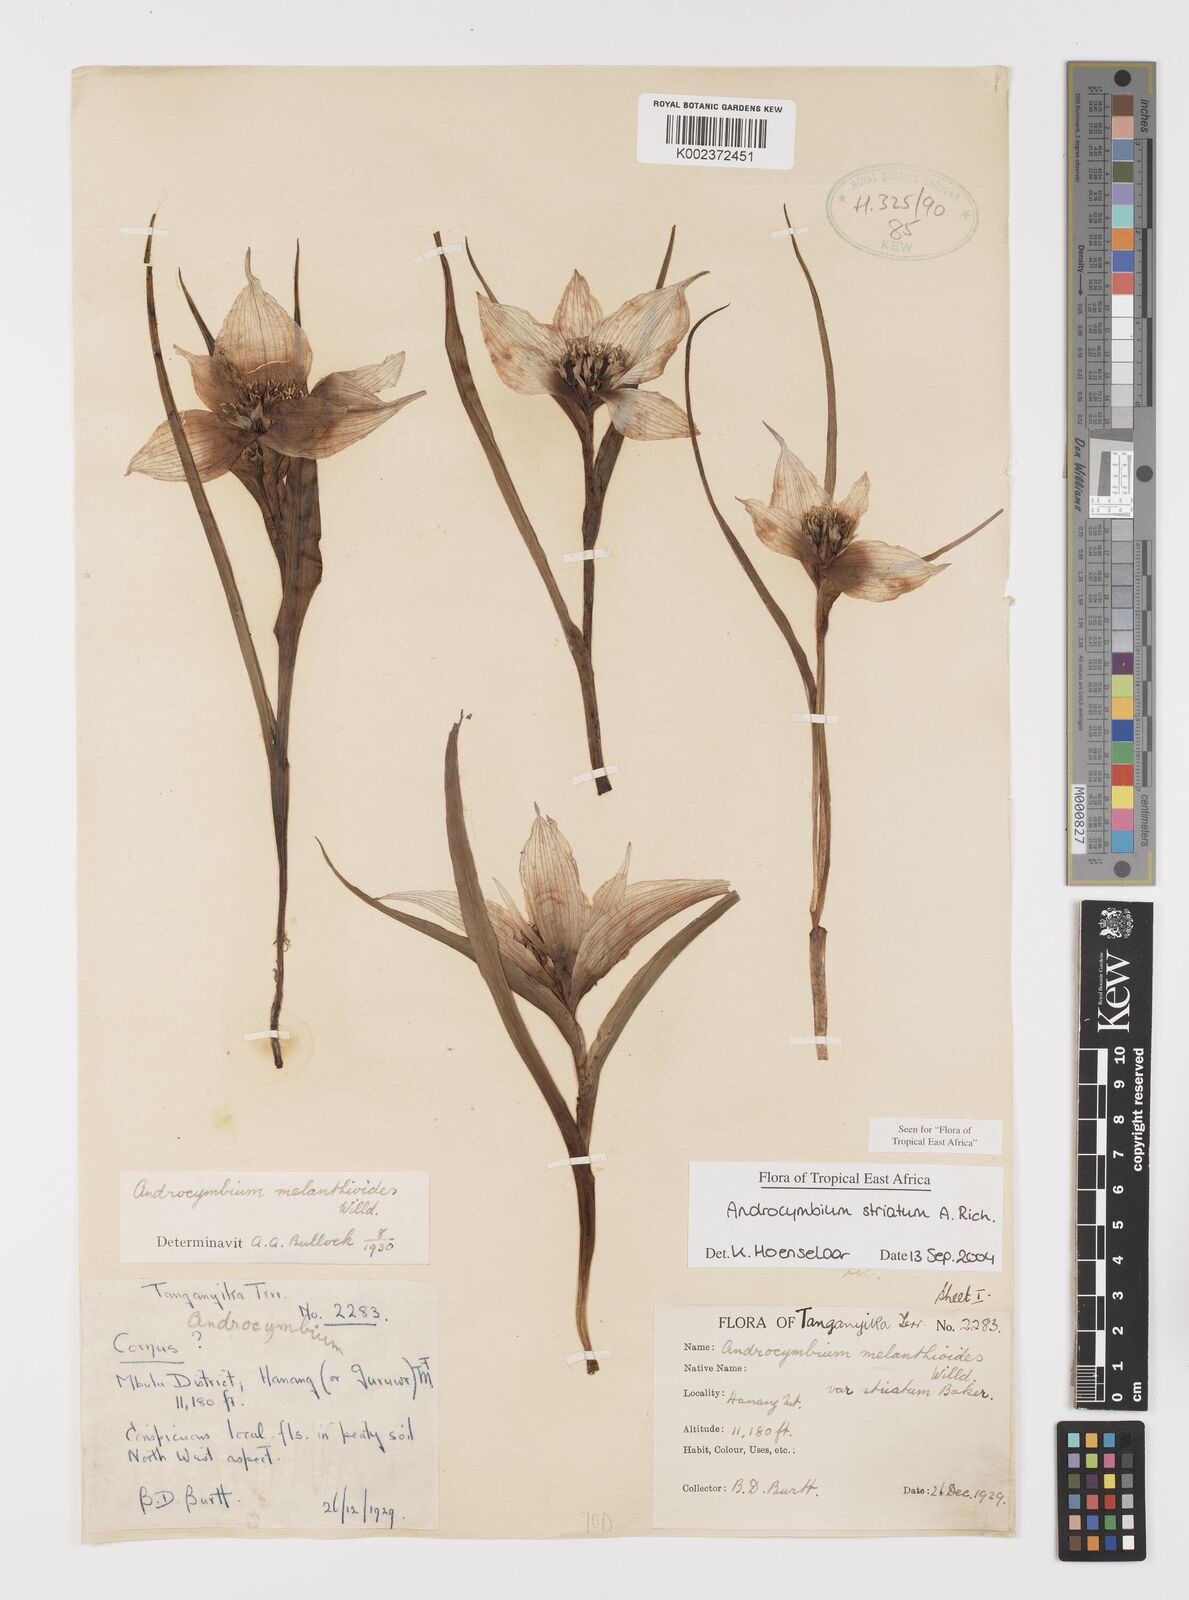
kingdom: Plantae
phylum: Tracheophyta
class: Liliopsida
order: Liliales
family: Colchicaceae
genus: Colchicum
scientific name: Colchicum striatum
